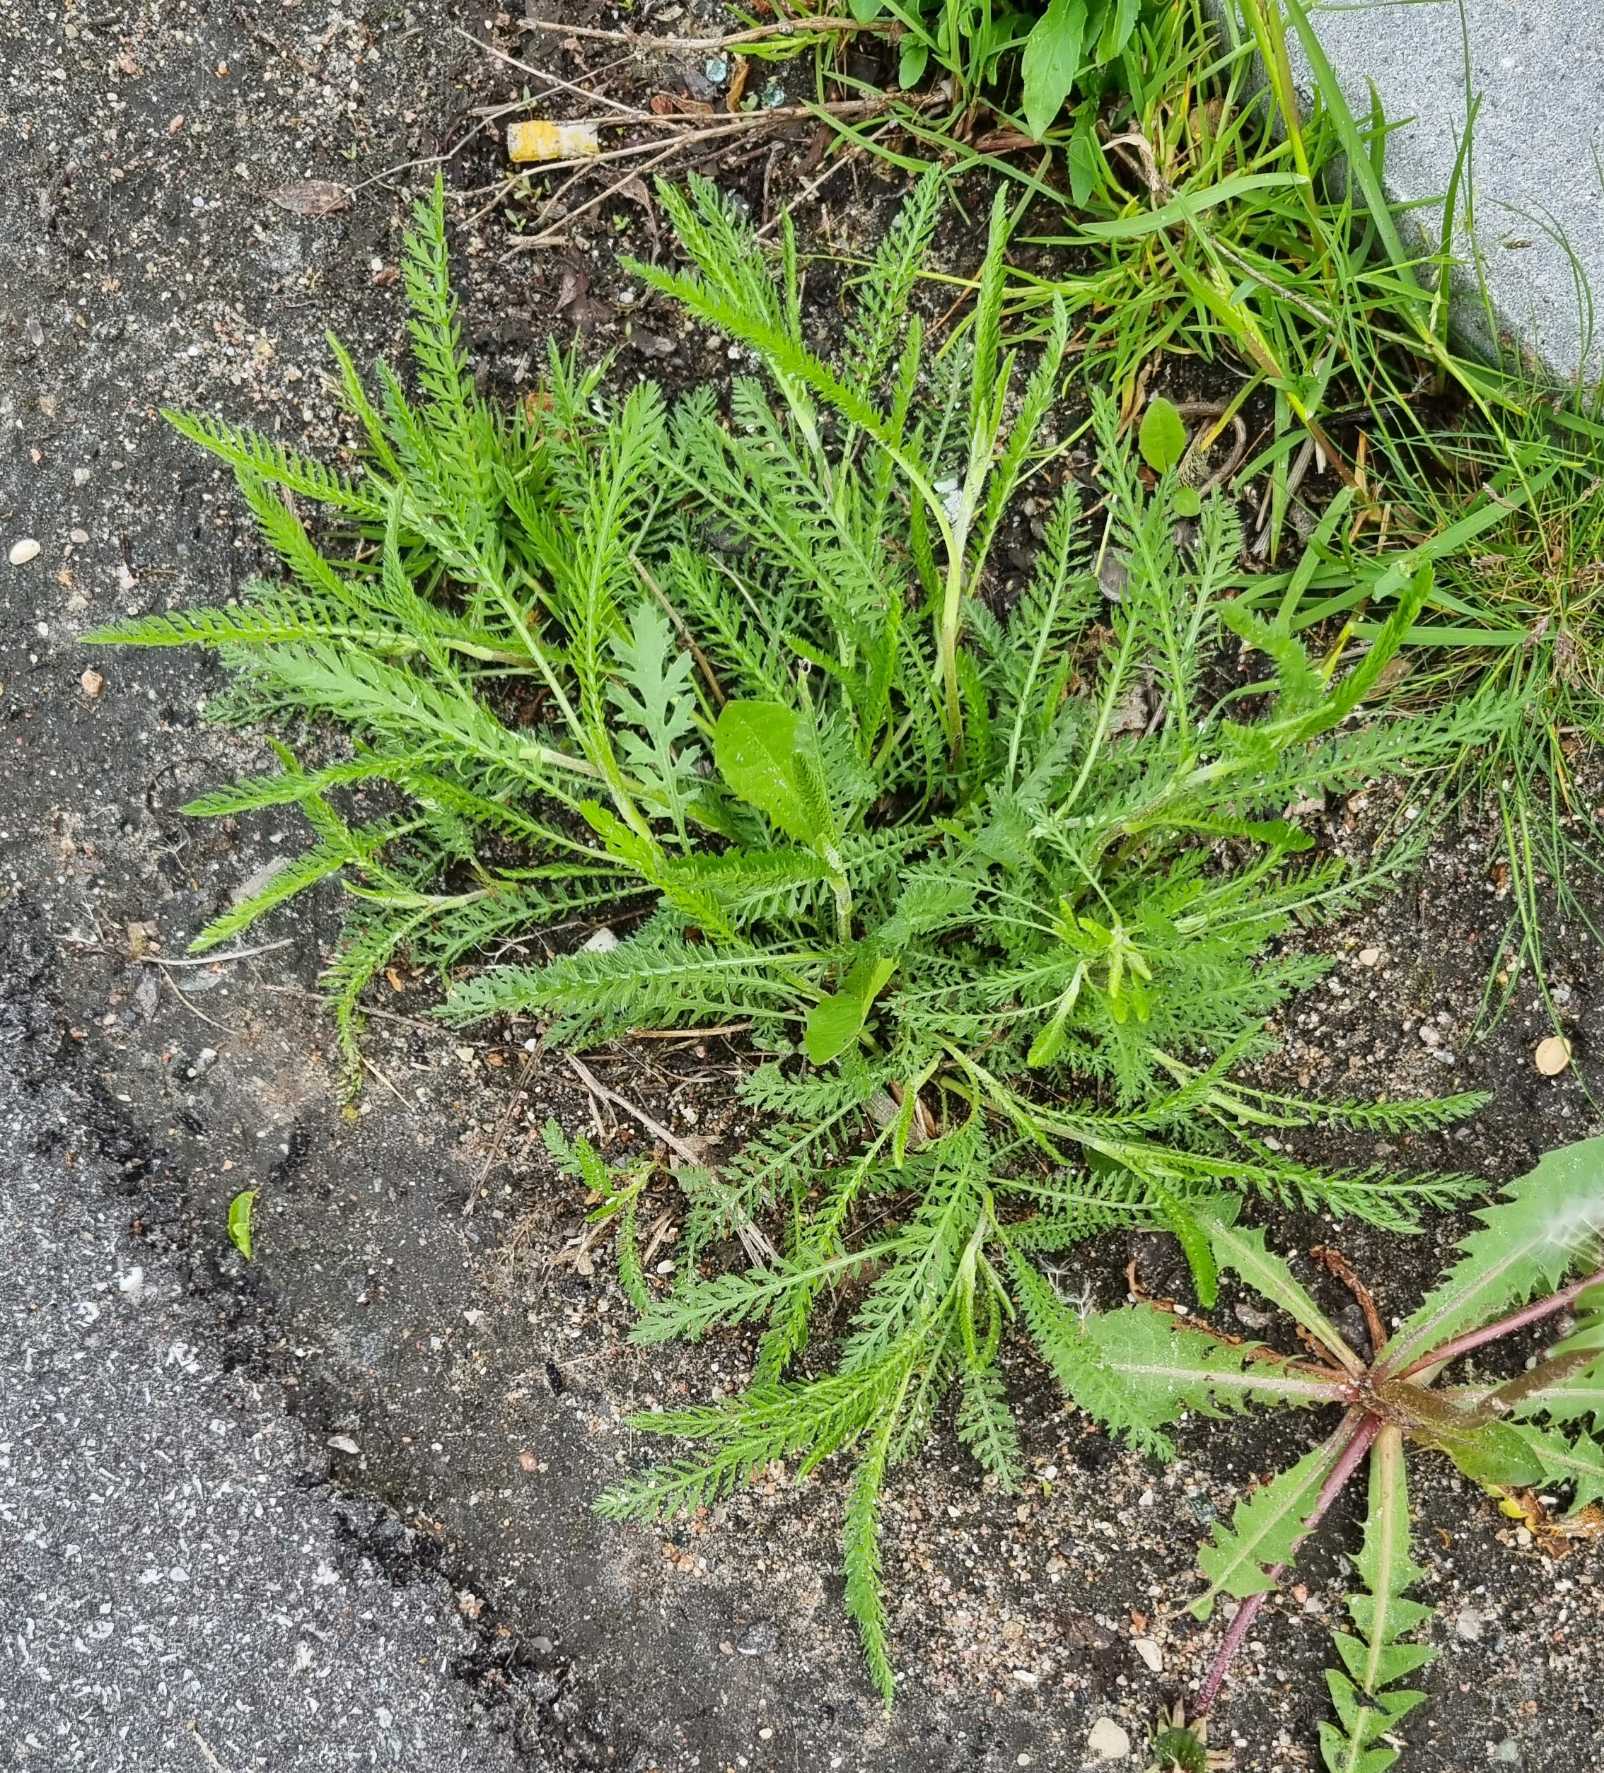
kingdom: Plantae
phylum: Tracheophyta
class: Magnoliopsida
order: Asterales
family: Asteraceae
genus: Achillea
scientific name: Achillea millefolium
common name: Almindelig røllike
